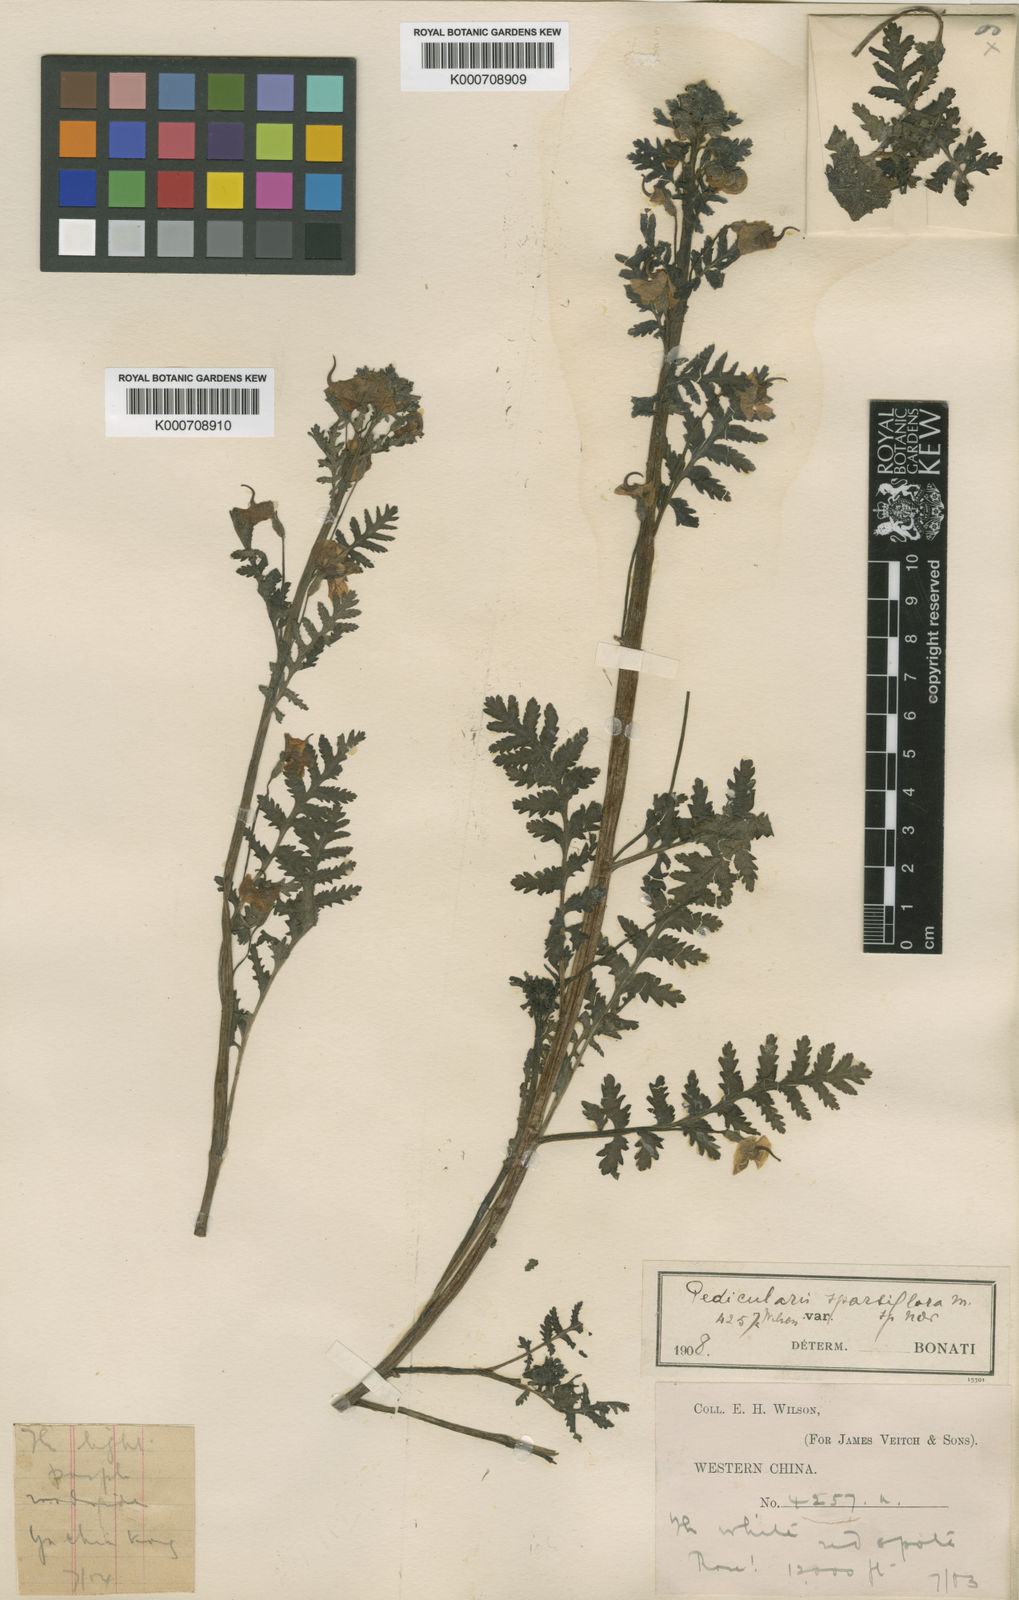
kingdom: Plantae
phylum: Tracheophyta
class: Magnoliopsida
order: Lamiales
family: Orobanchaceae
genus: Pedicularis
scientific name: Pedicularis sparsiflora
